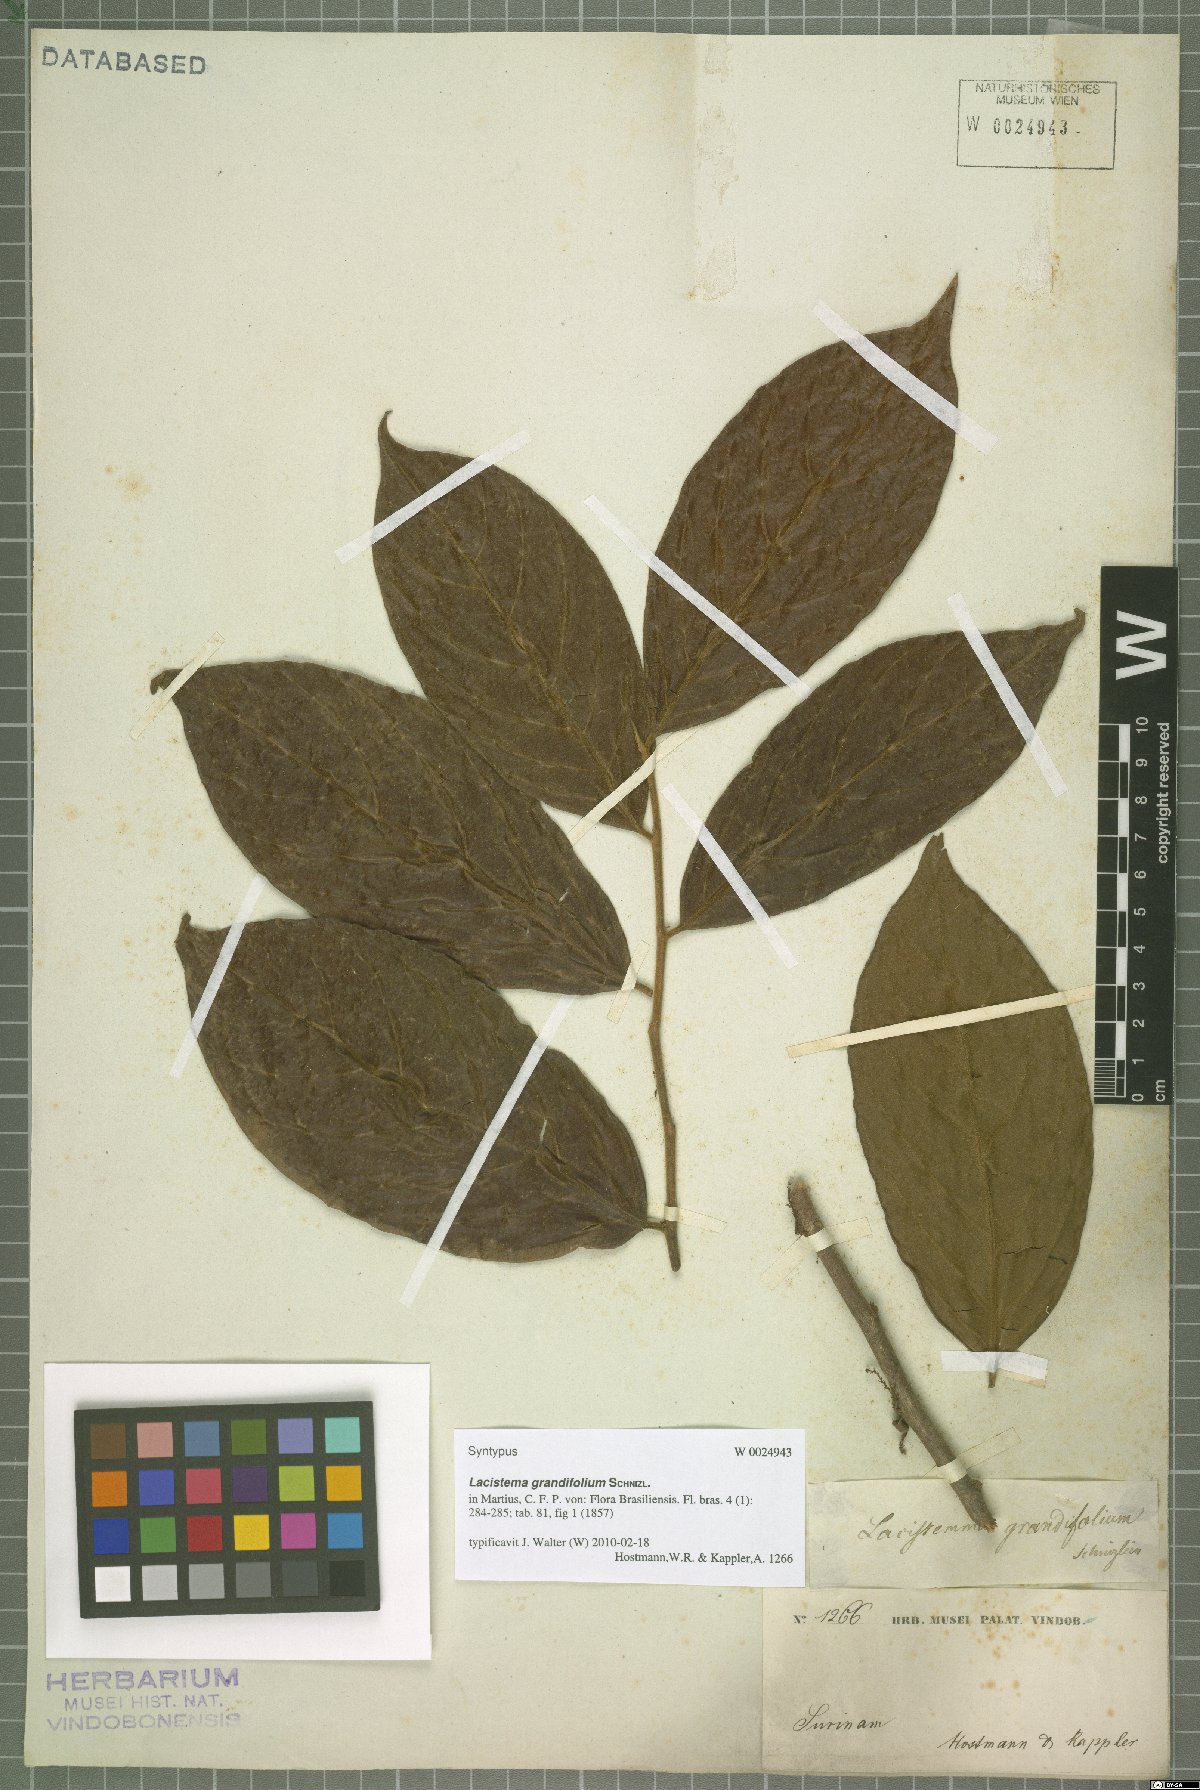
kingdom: Plantae
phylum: Tracheophyta
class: Magnoliopsida
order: Malpighiales
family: Lacistemataceae
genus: Lacistema
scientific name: Lacistema grandifolium
